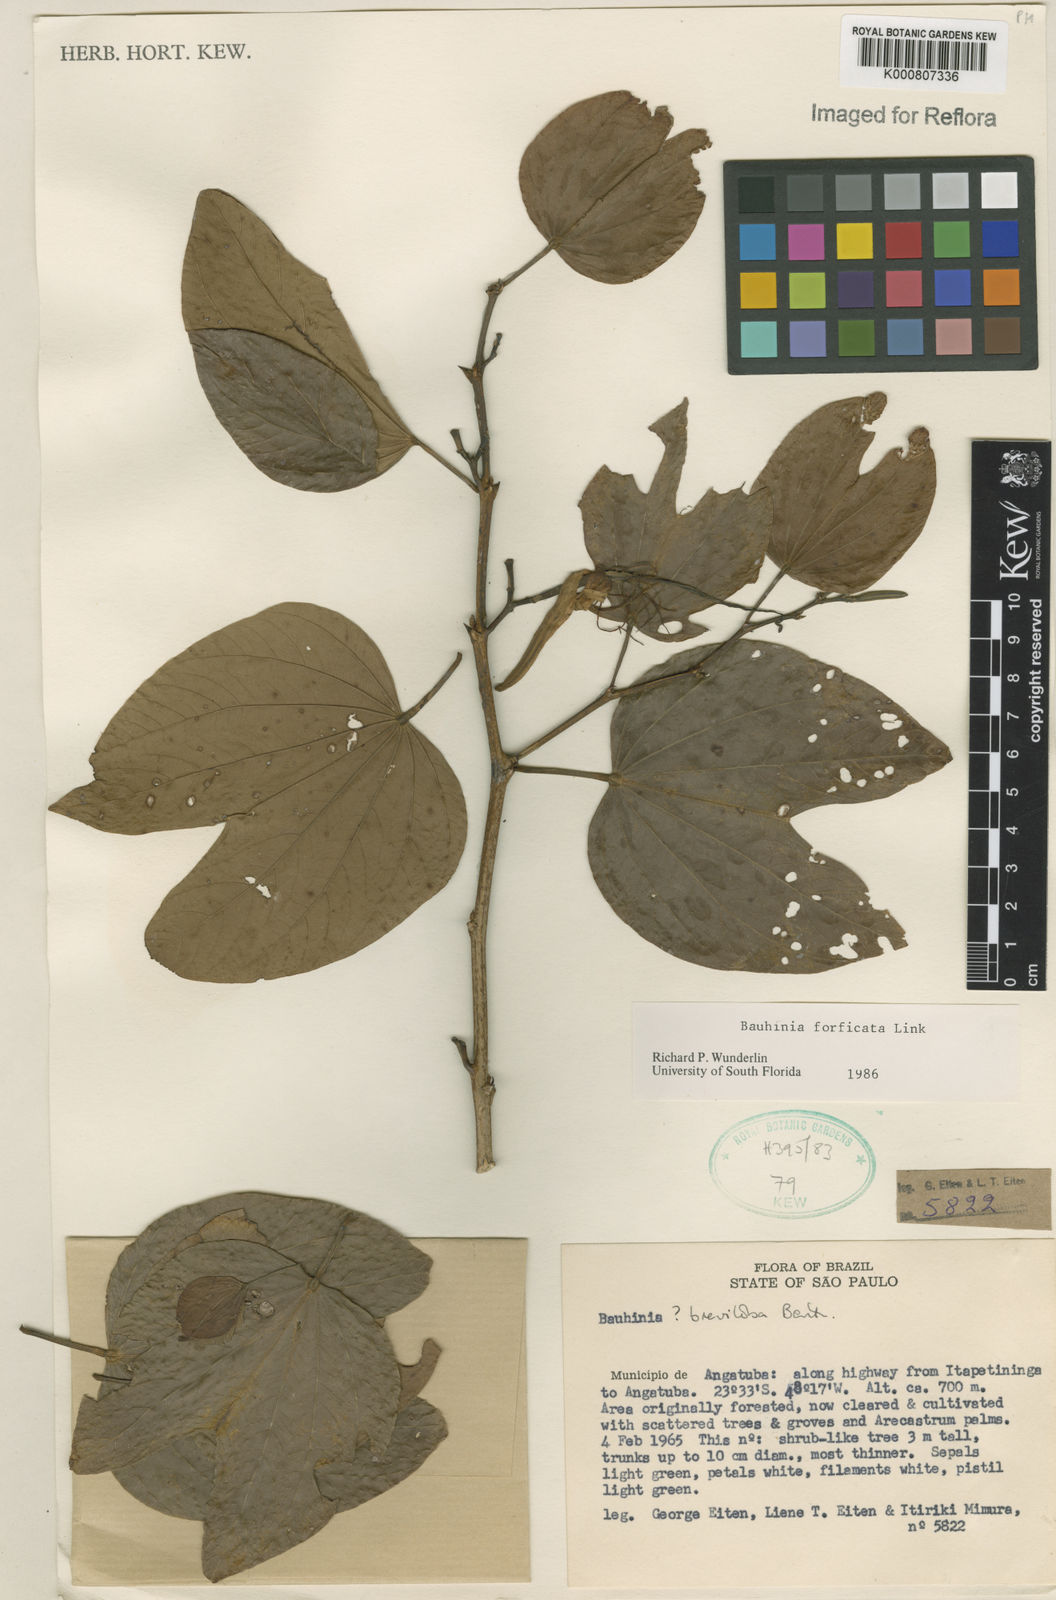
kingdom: Plantae
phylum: Tracheophyta
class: Magnoliopsida
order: Fabales
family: Fabaceae
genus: Bauhinia
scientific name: Bauhinia forficata
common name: Orchid tree
